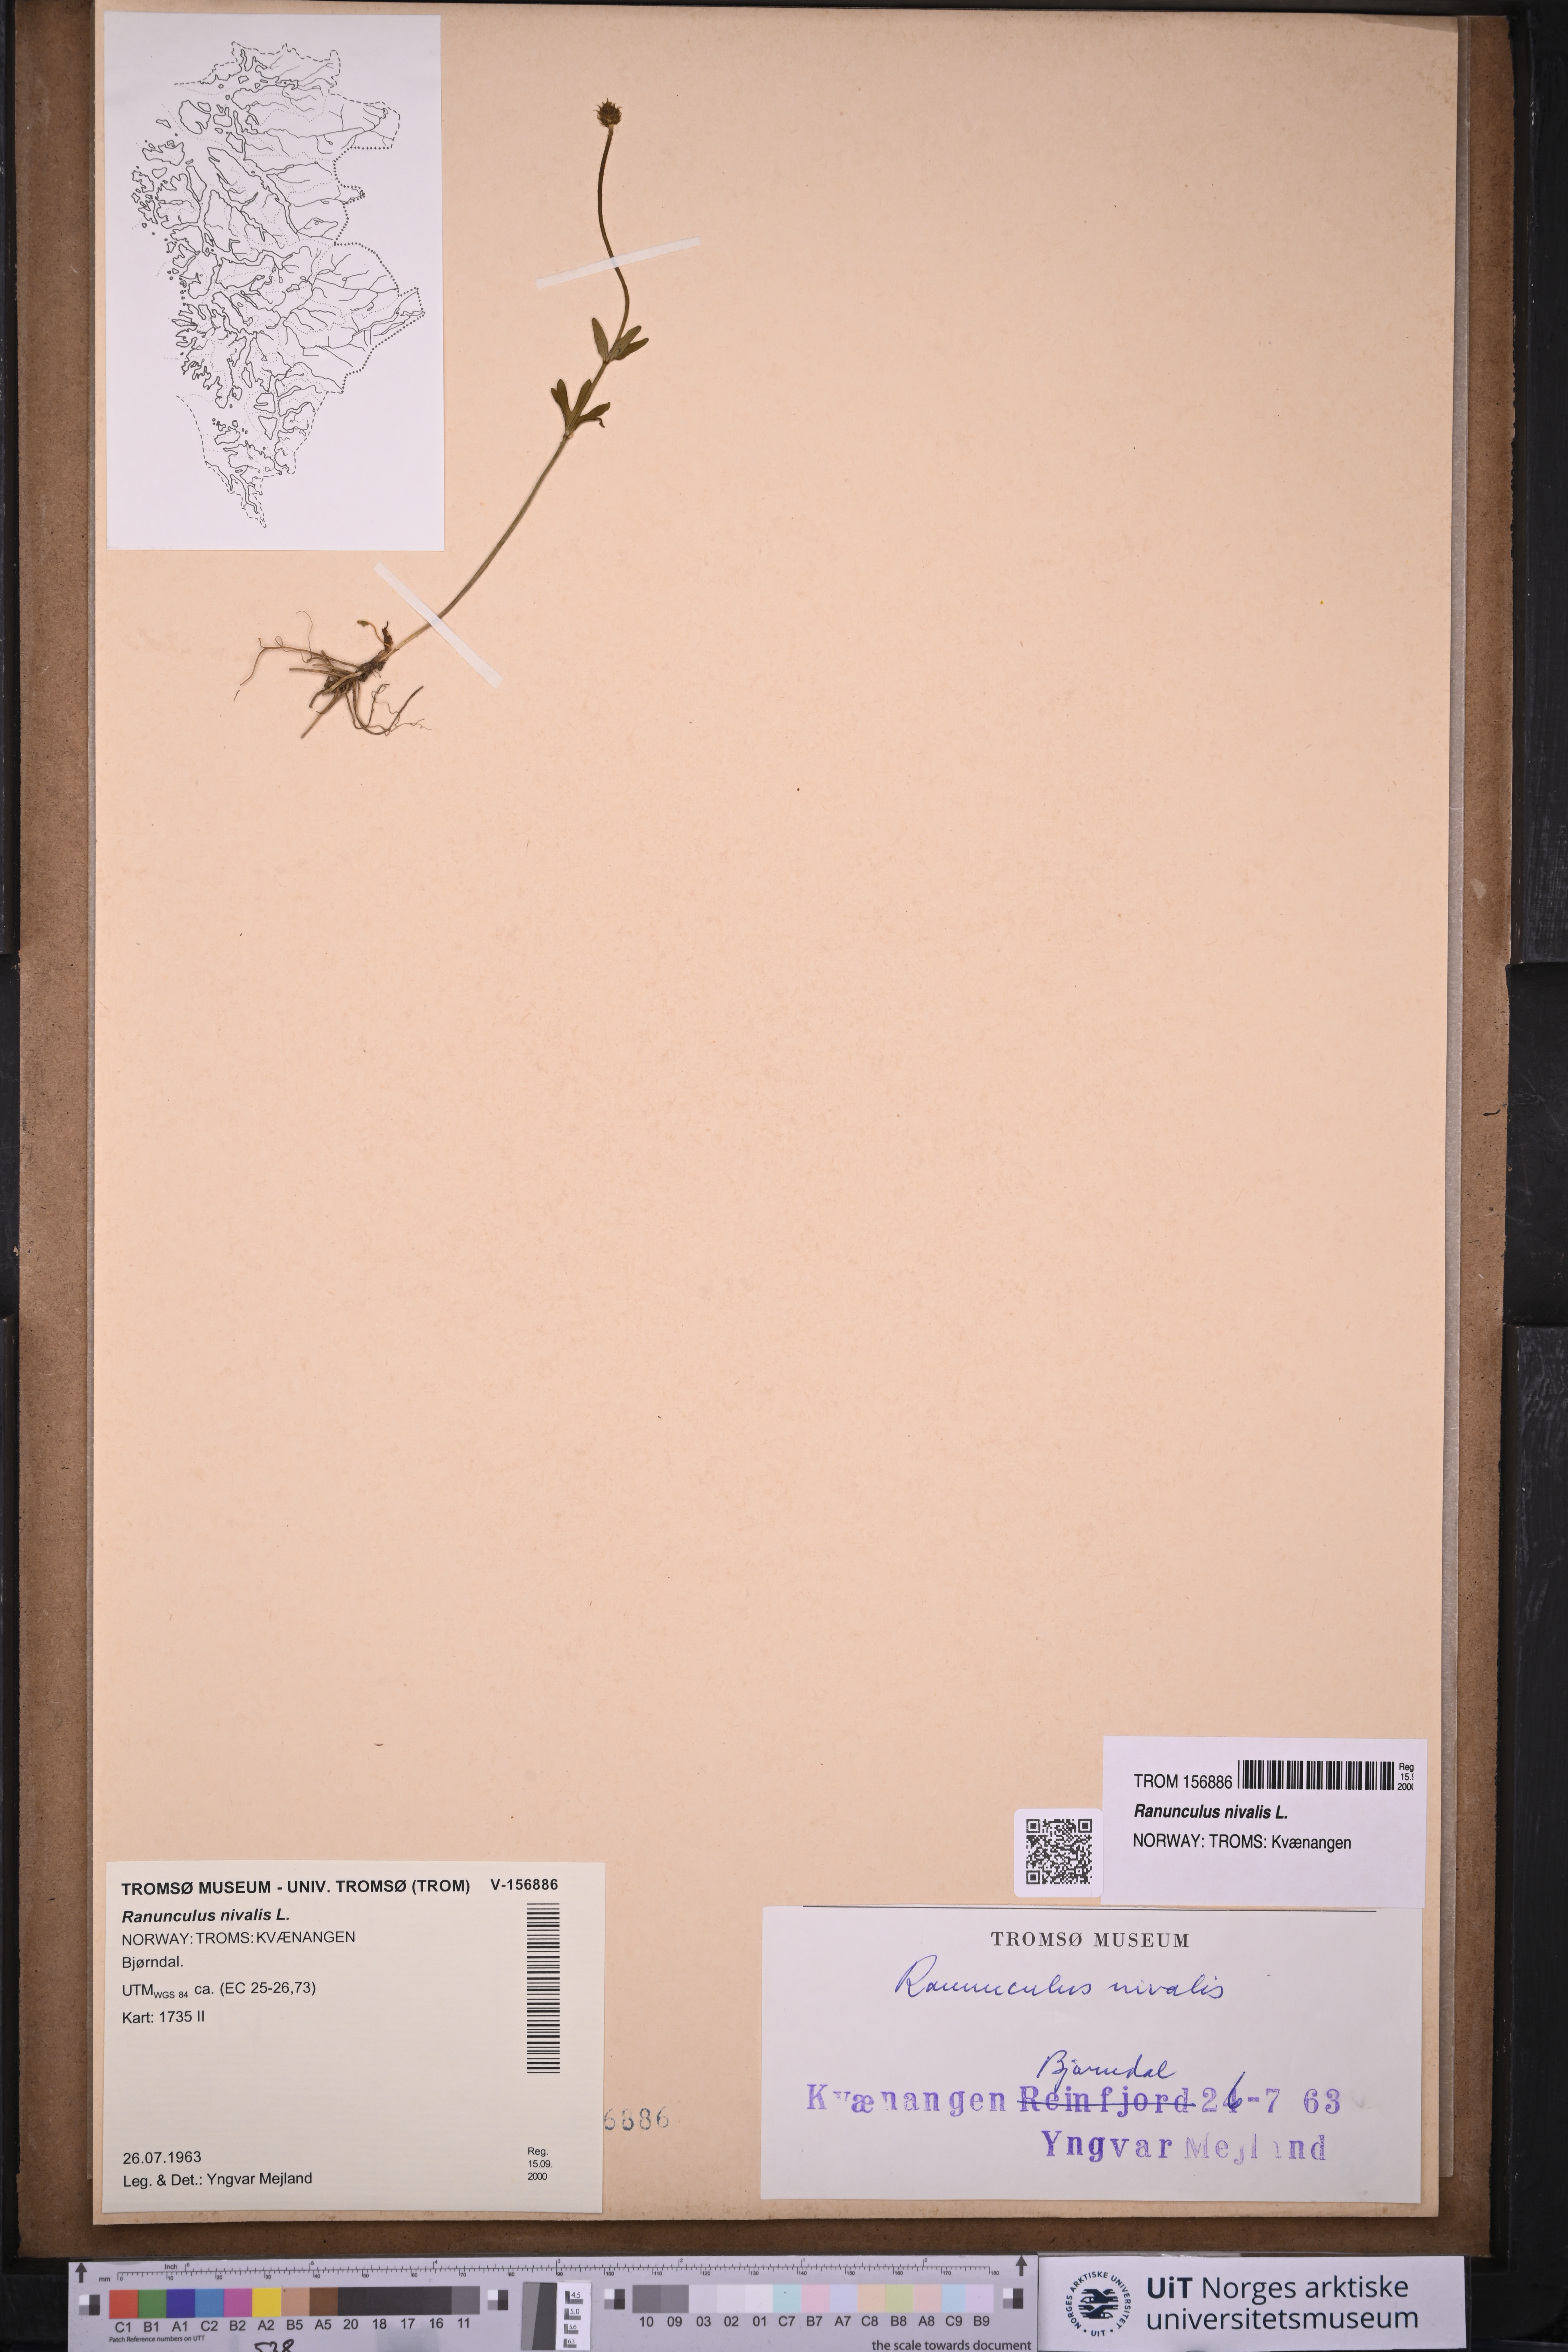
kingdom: Plantae
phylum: Tracheophyta
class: Magnoliopsida
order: Ranunculales
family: Ranunculaceae
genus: Ranunculus
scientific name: Ranunculus nivalis
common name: Snow buttercup
